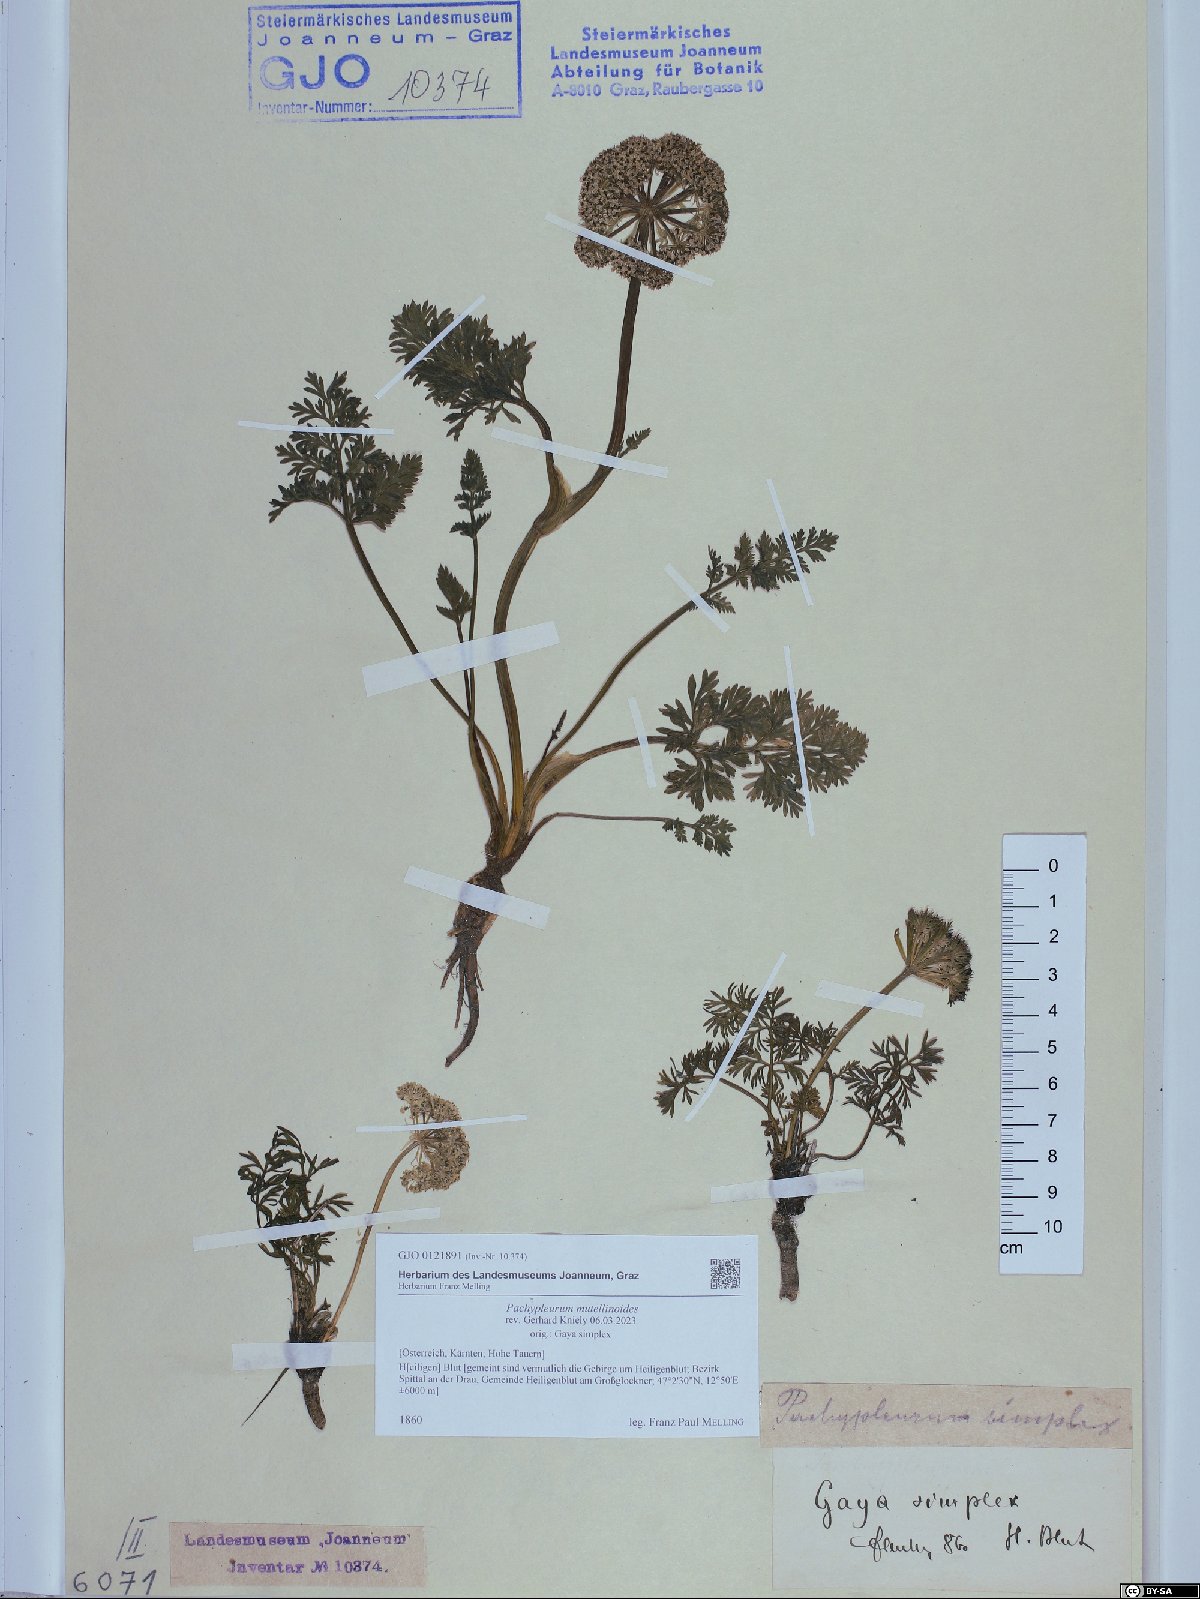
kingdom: Plantae
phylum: Tracheophyta
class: Magnoliopsida
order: Apiales
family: Apiaceae
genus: Pachypleurum
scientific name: Pachypleurum mutellinoides
